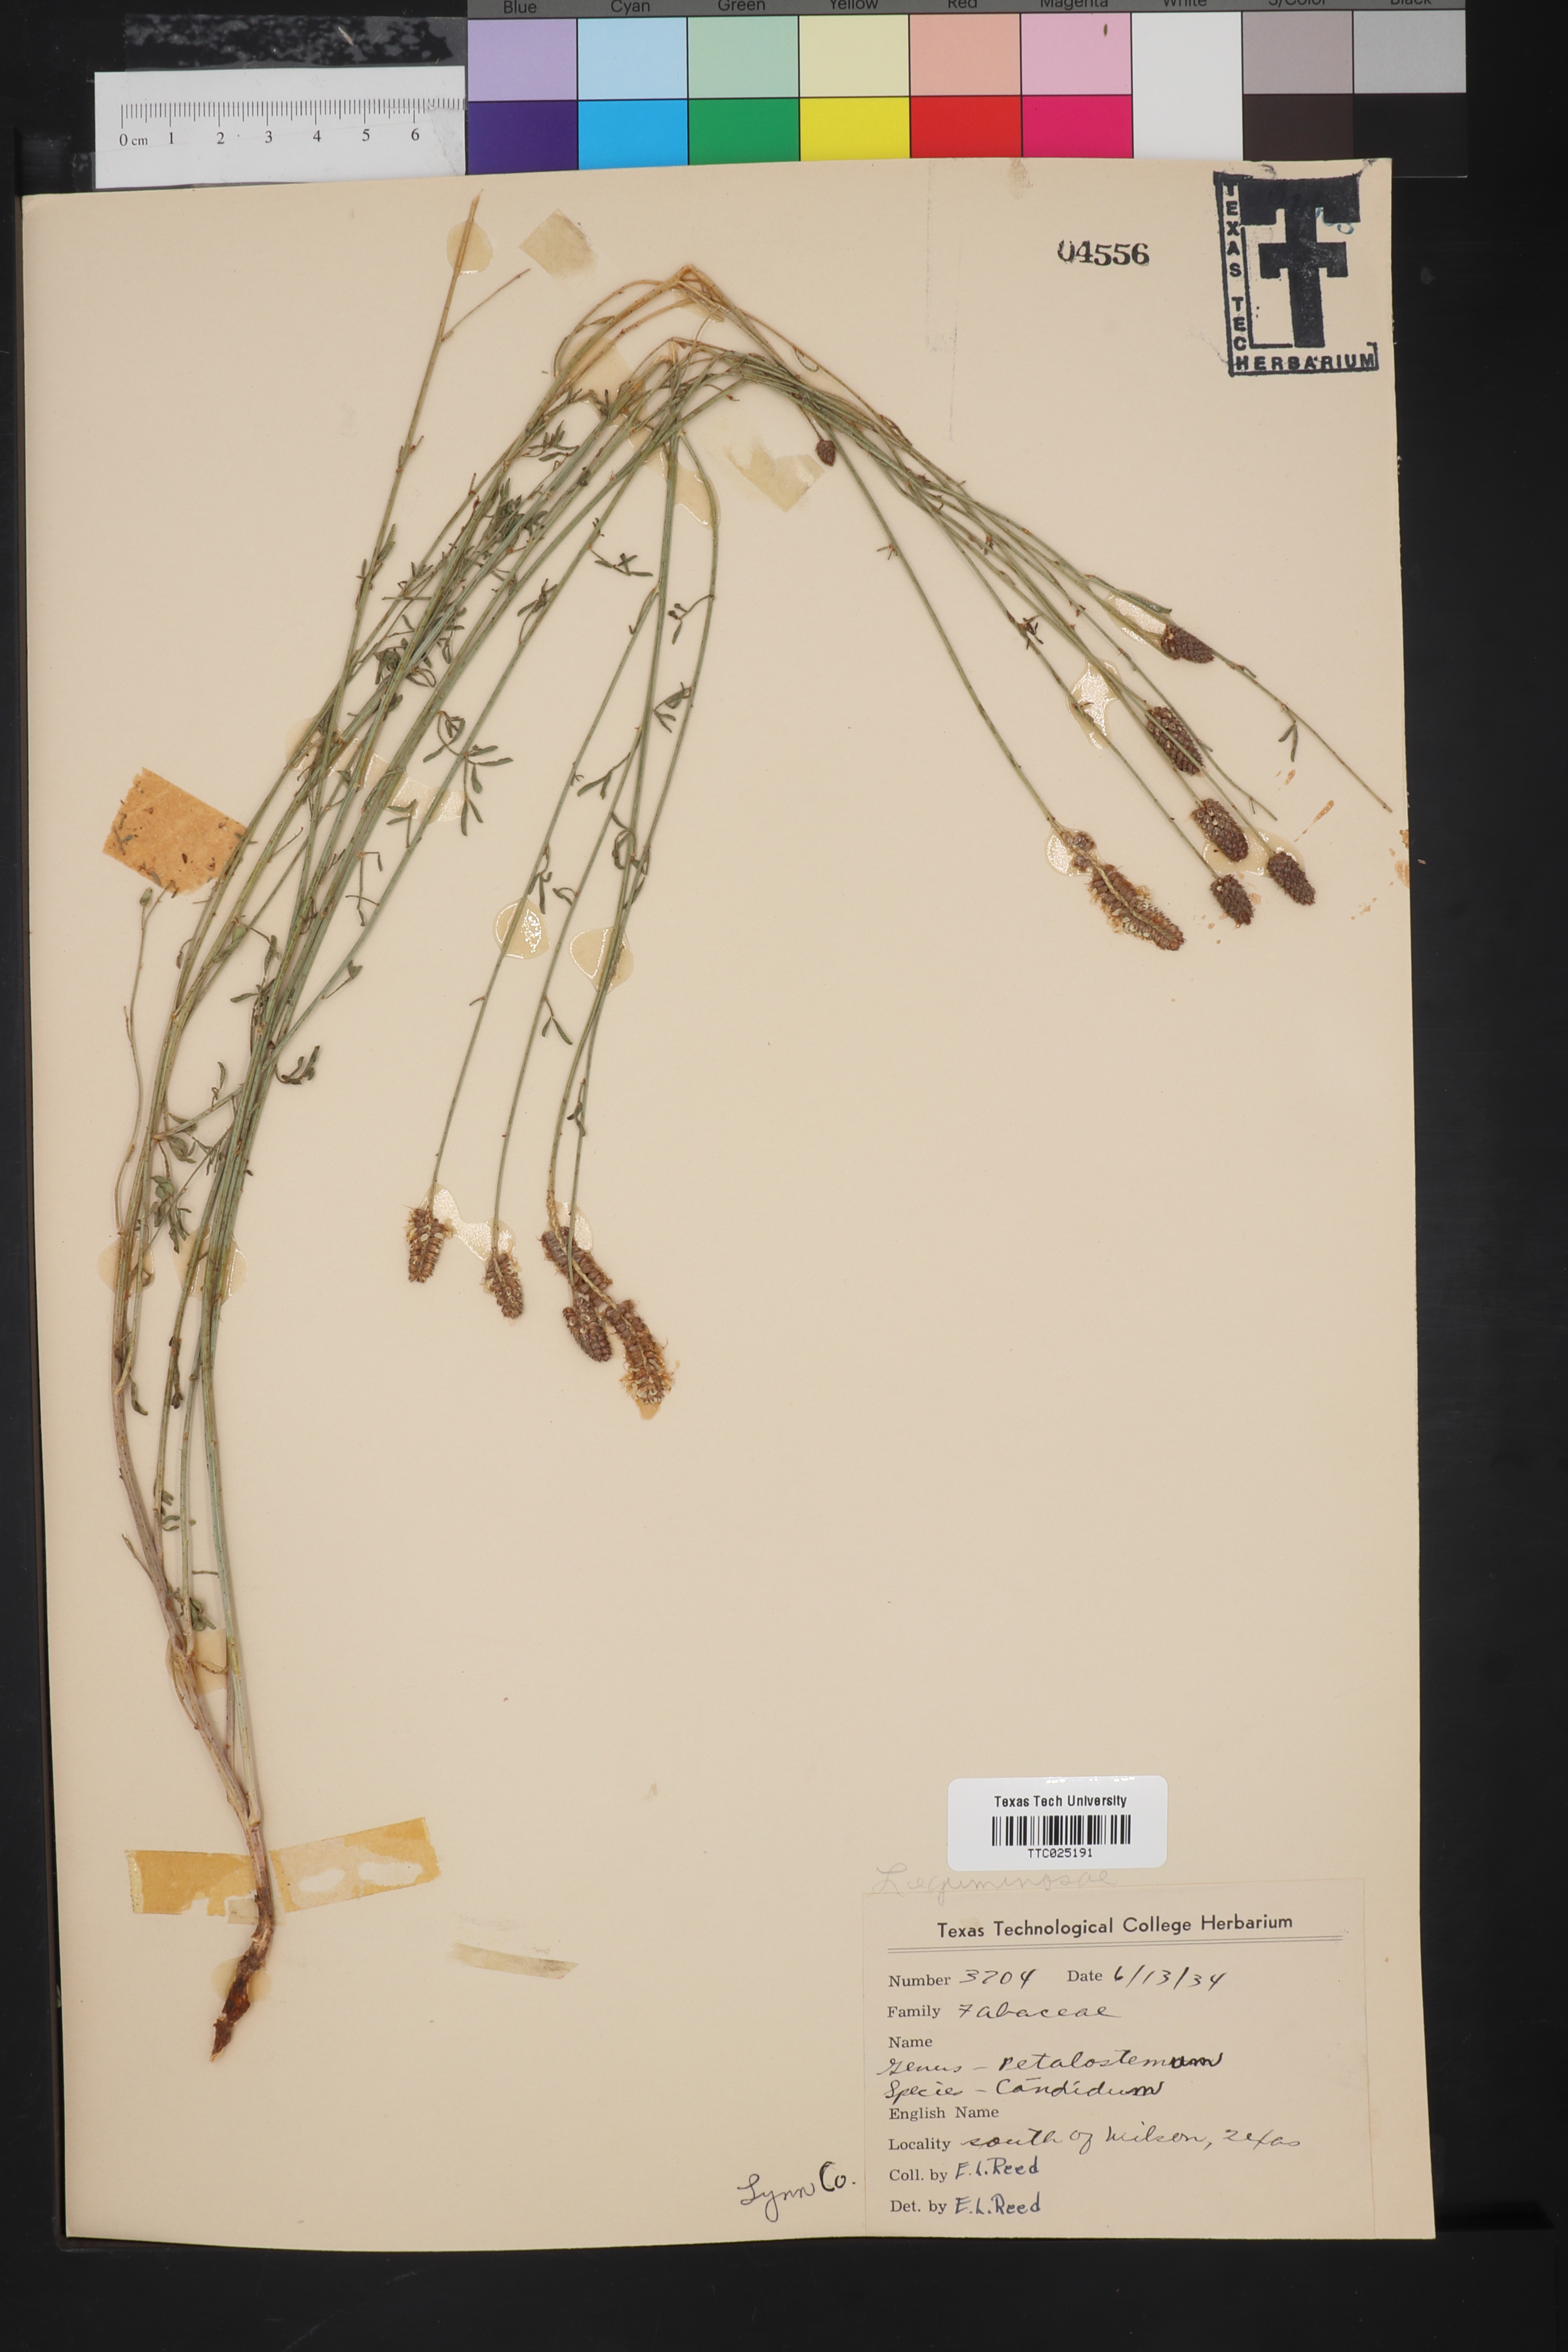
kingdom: Plantae
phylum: Tracheophyta
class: Magnoliopsida
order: Fabales
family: Fabaceae
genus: Dalea
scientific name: Dalea candida
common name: White prairie-clover
